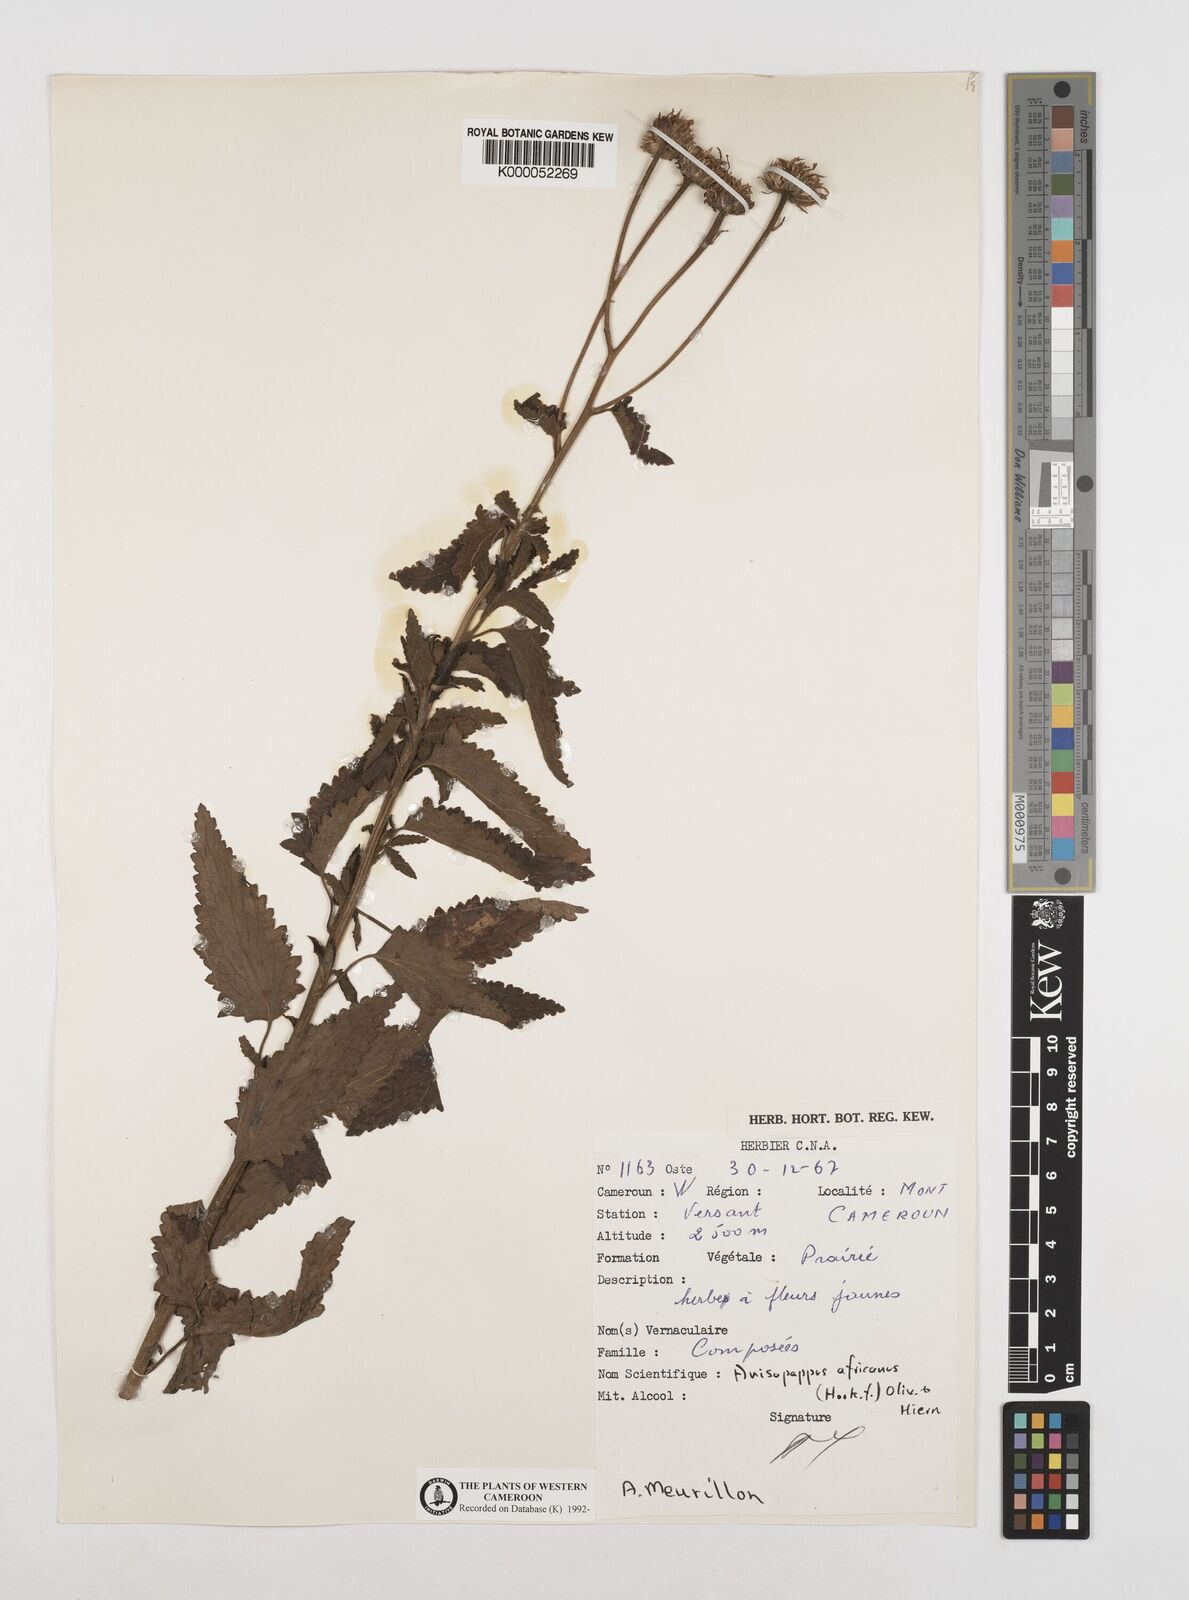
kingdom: Plantae
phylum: Tracheophyta
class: Magnoliopsida
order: Asterales
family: Asteraceae
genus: Anisopappus
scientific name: Anisopappus chinensis
